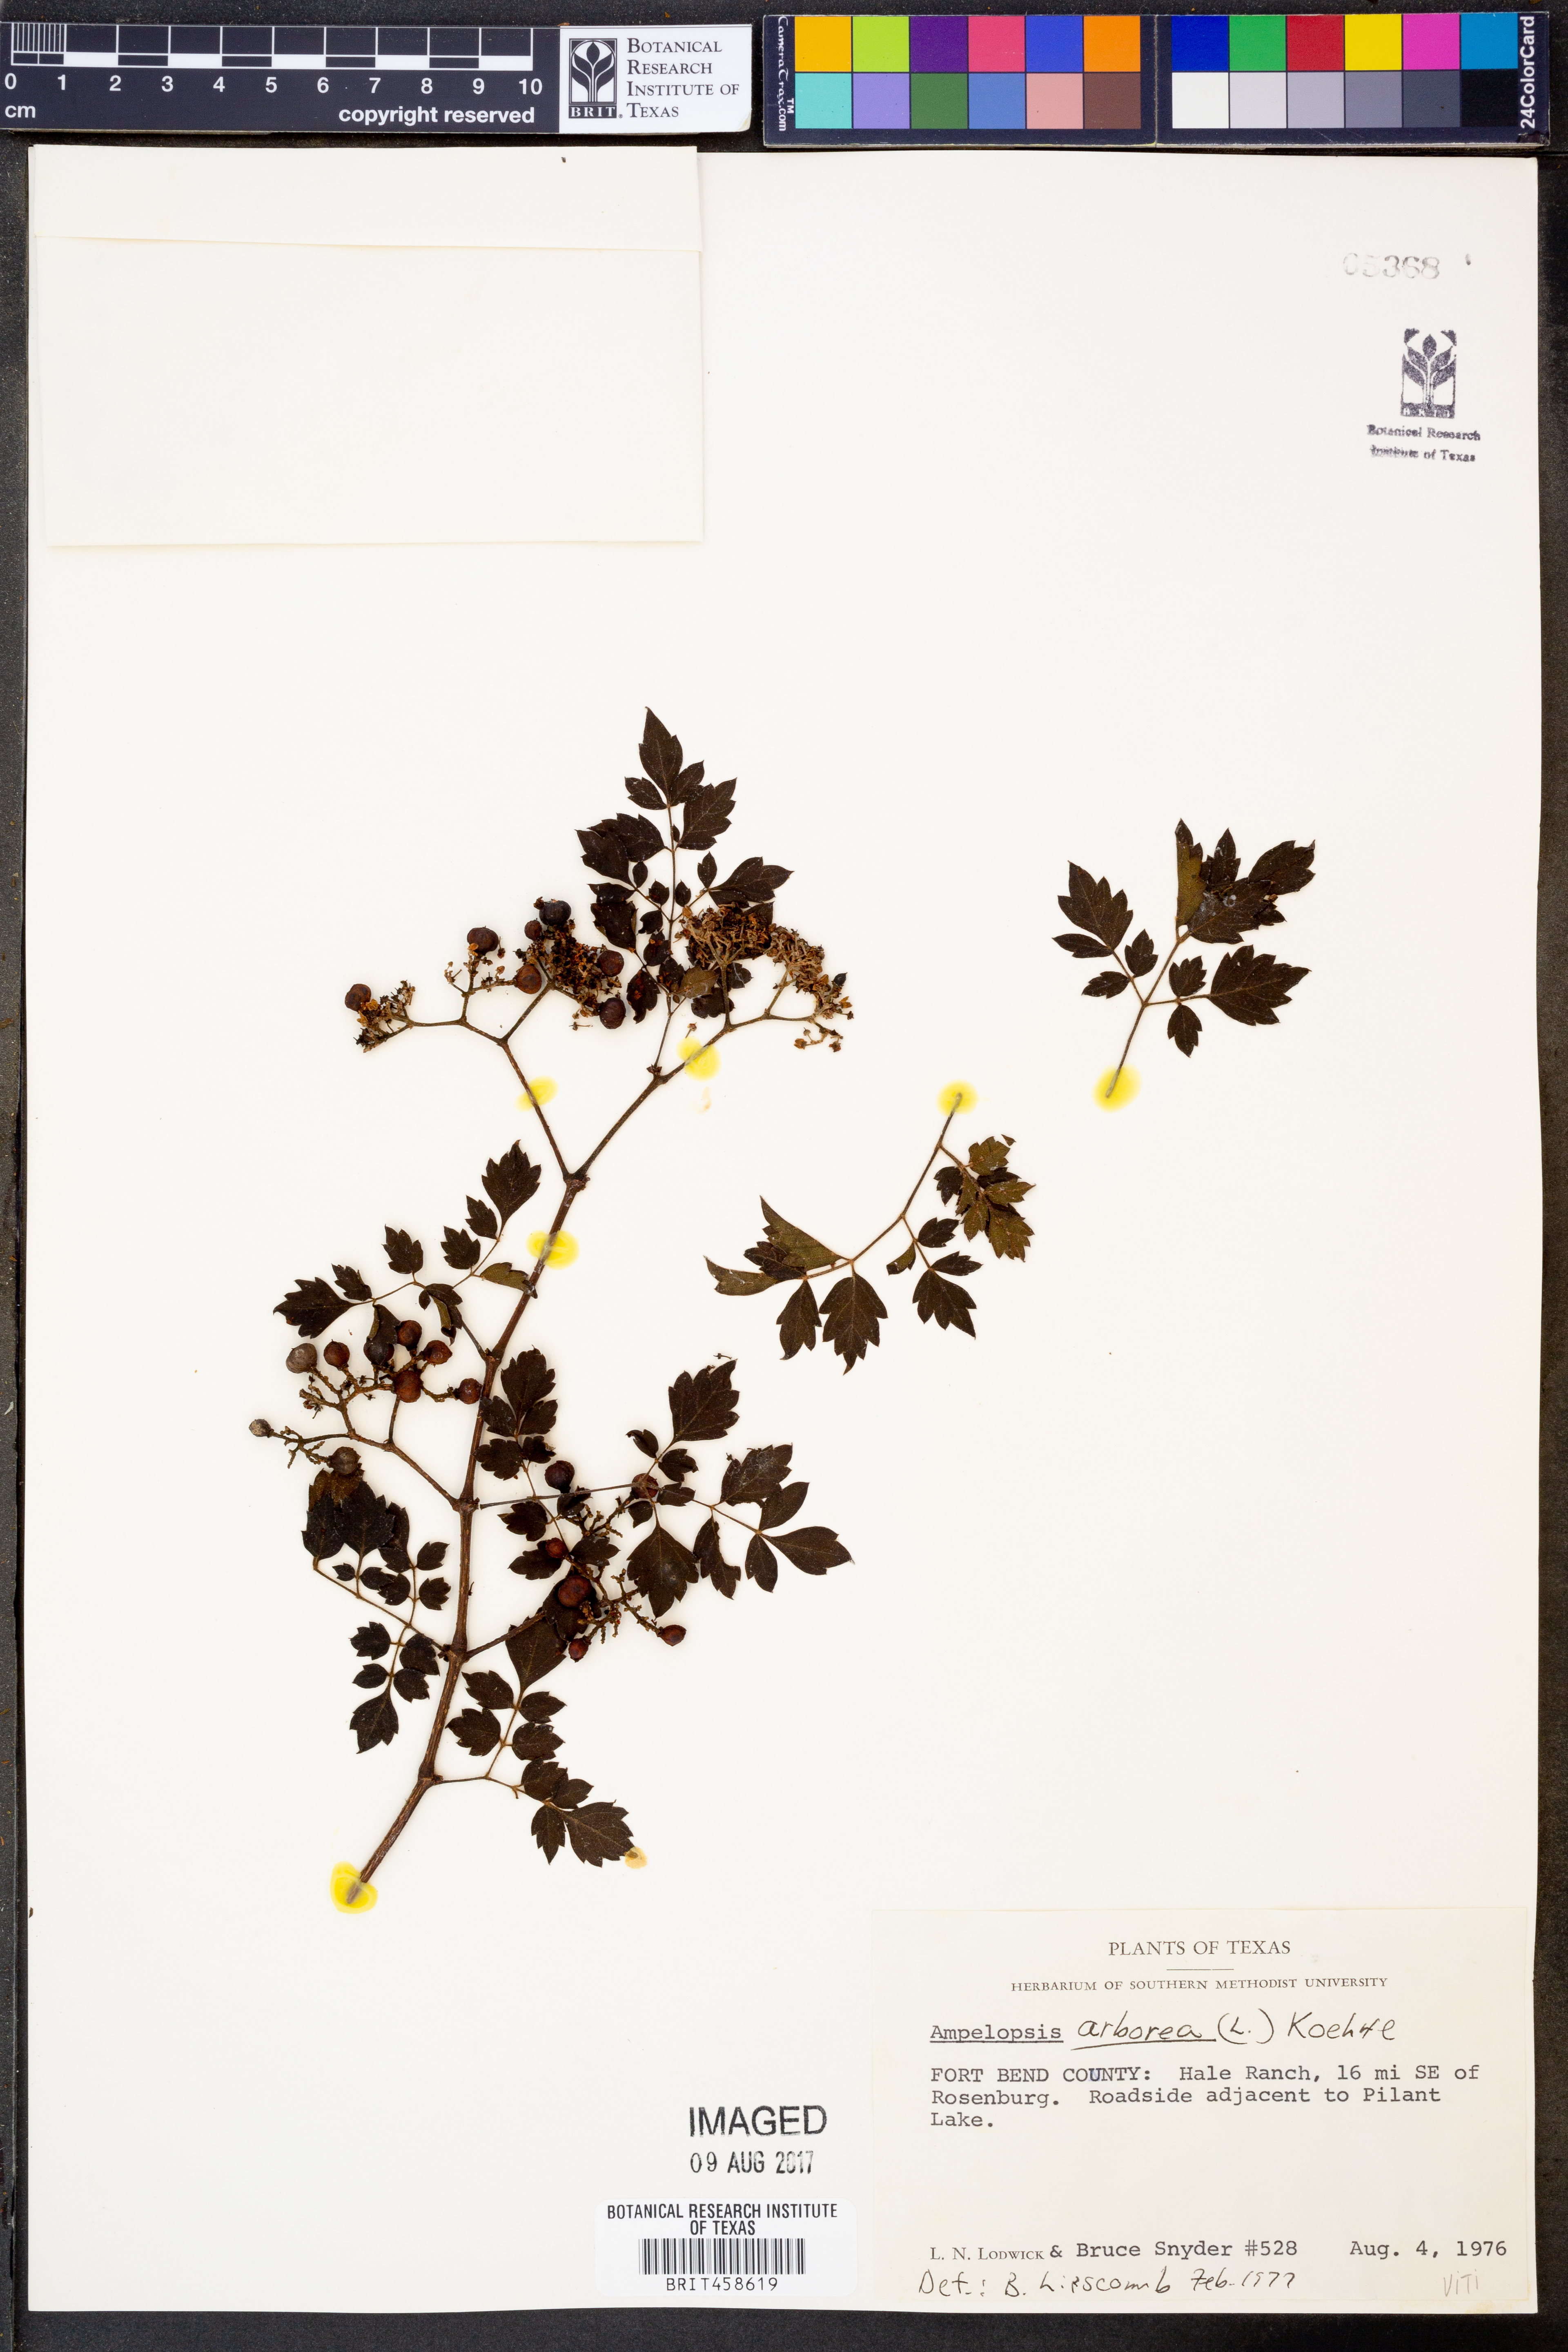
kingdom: Plantae
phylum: Tracheophyta
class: Magnoliopsida
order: Vitales
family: Vitaceae
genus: Nekemias
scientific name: Nekemias arborea
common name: Peppervine
